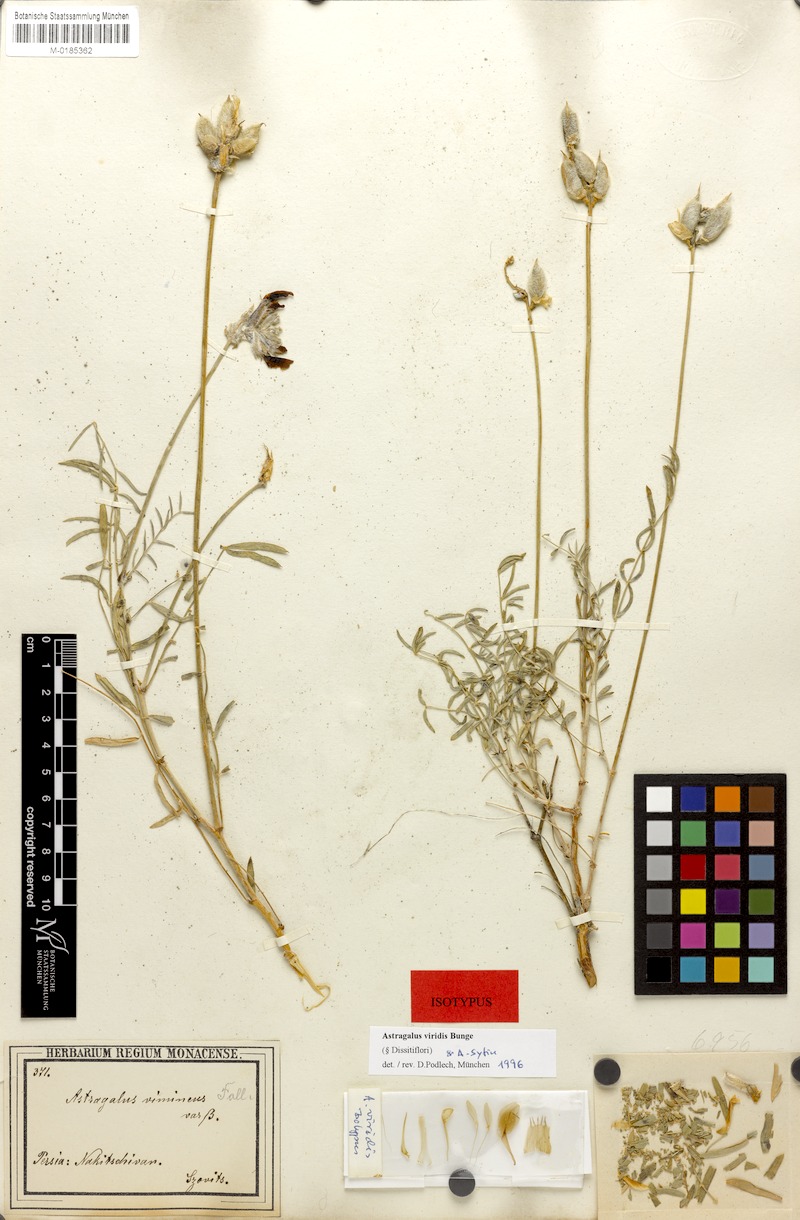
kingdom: Plantae
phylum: Tracheophyta
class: Magnoliopsida
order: Fabales
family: Fabaceae
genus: Astragalus
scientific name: Astragalus viridis
